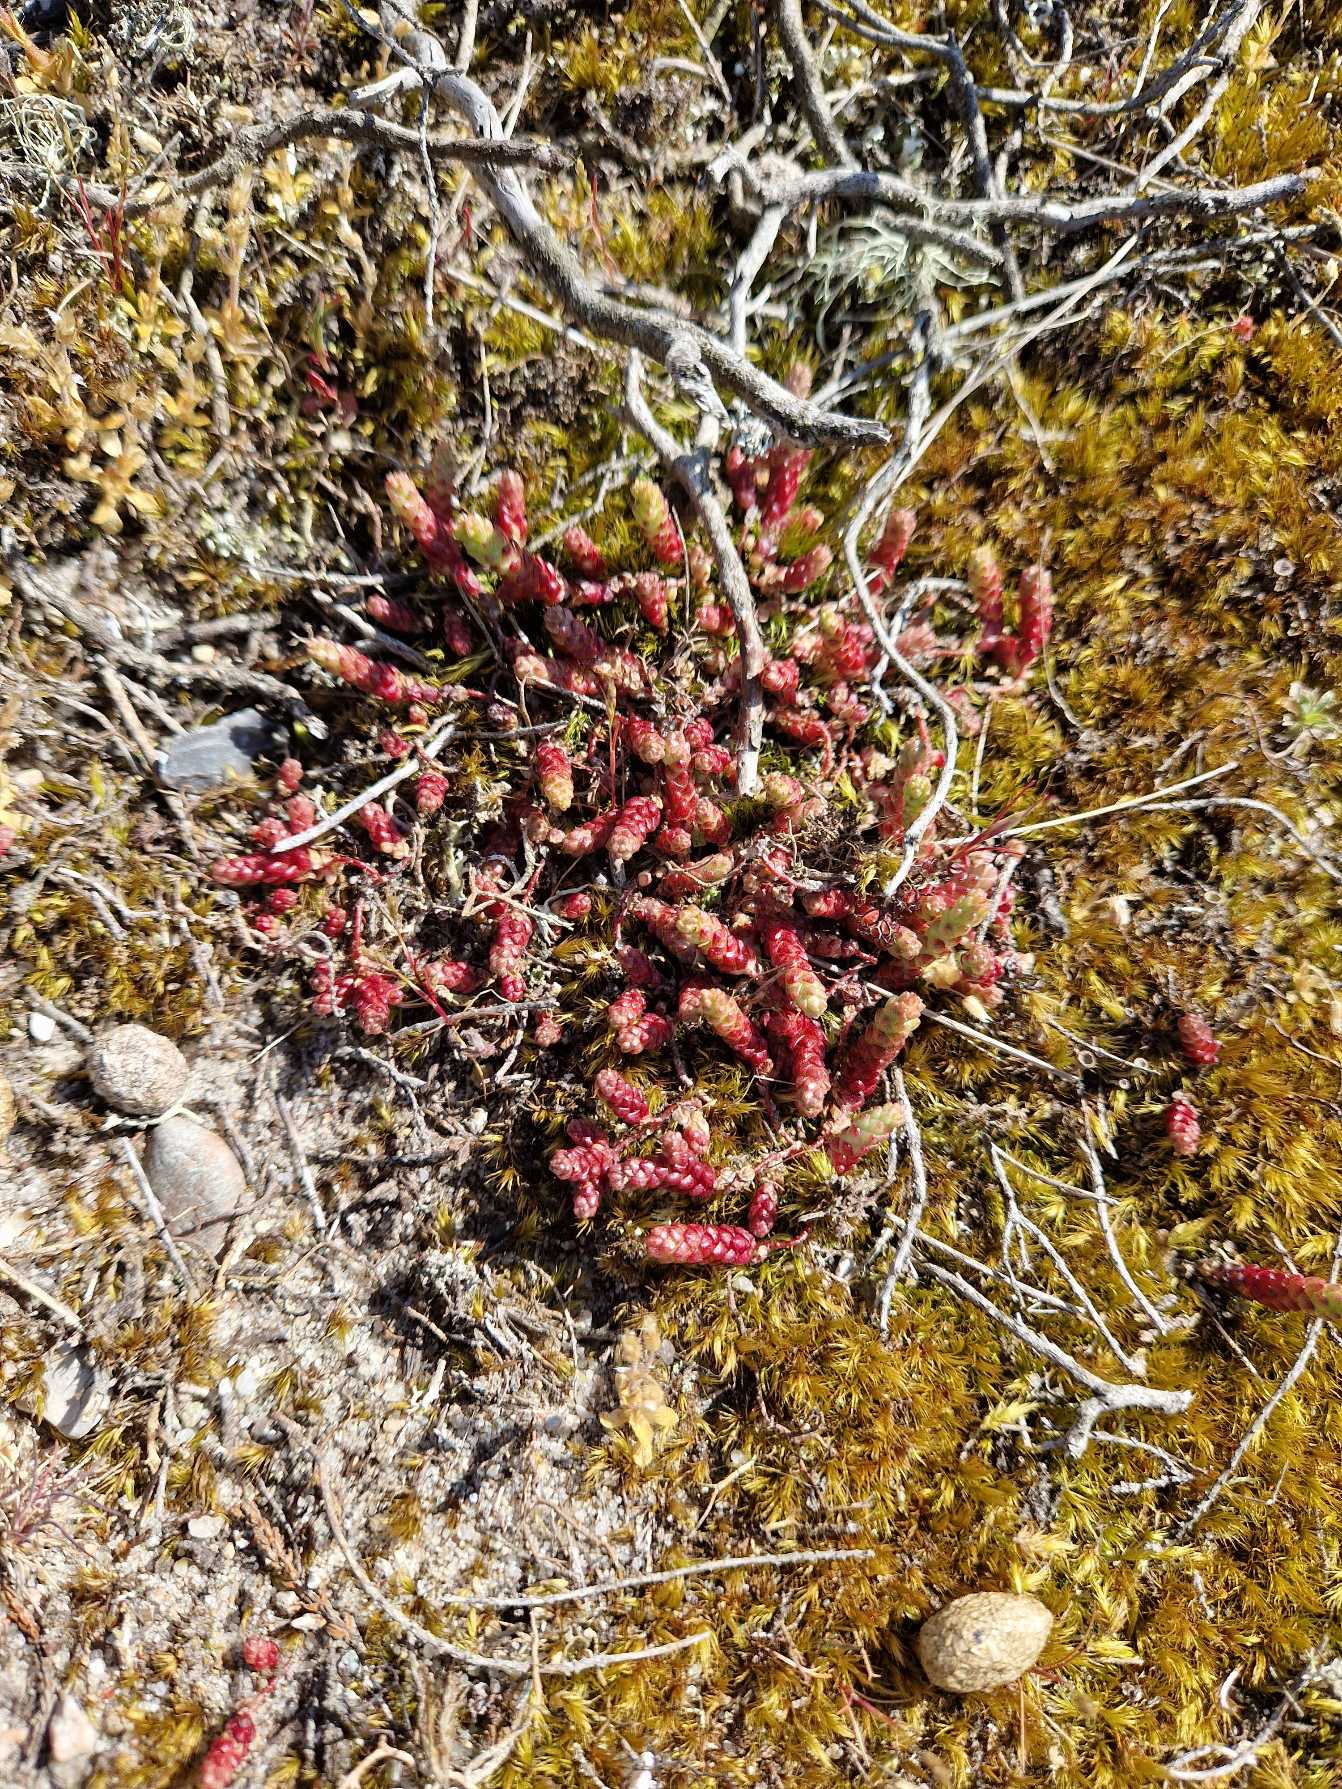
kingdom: Plantae
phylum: Tracheophyta
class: Magnoliopsida
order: Saxifragales
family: Crassulaceae
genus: Sedum
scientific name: Sedum acre
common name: Bidende stenurt
